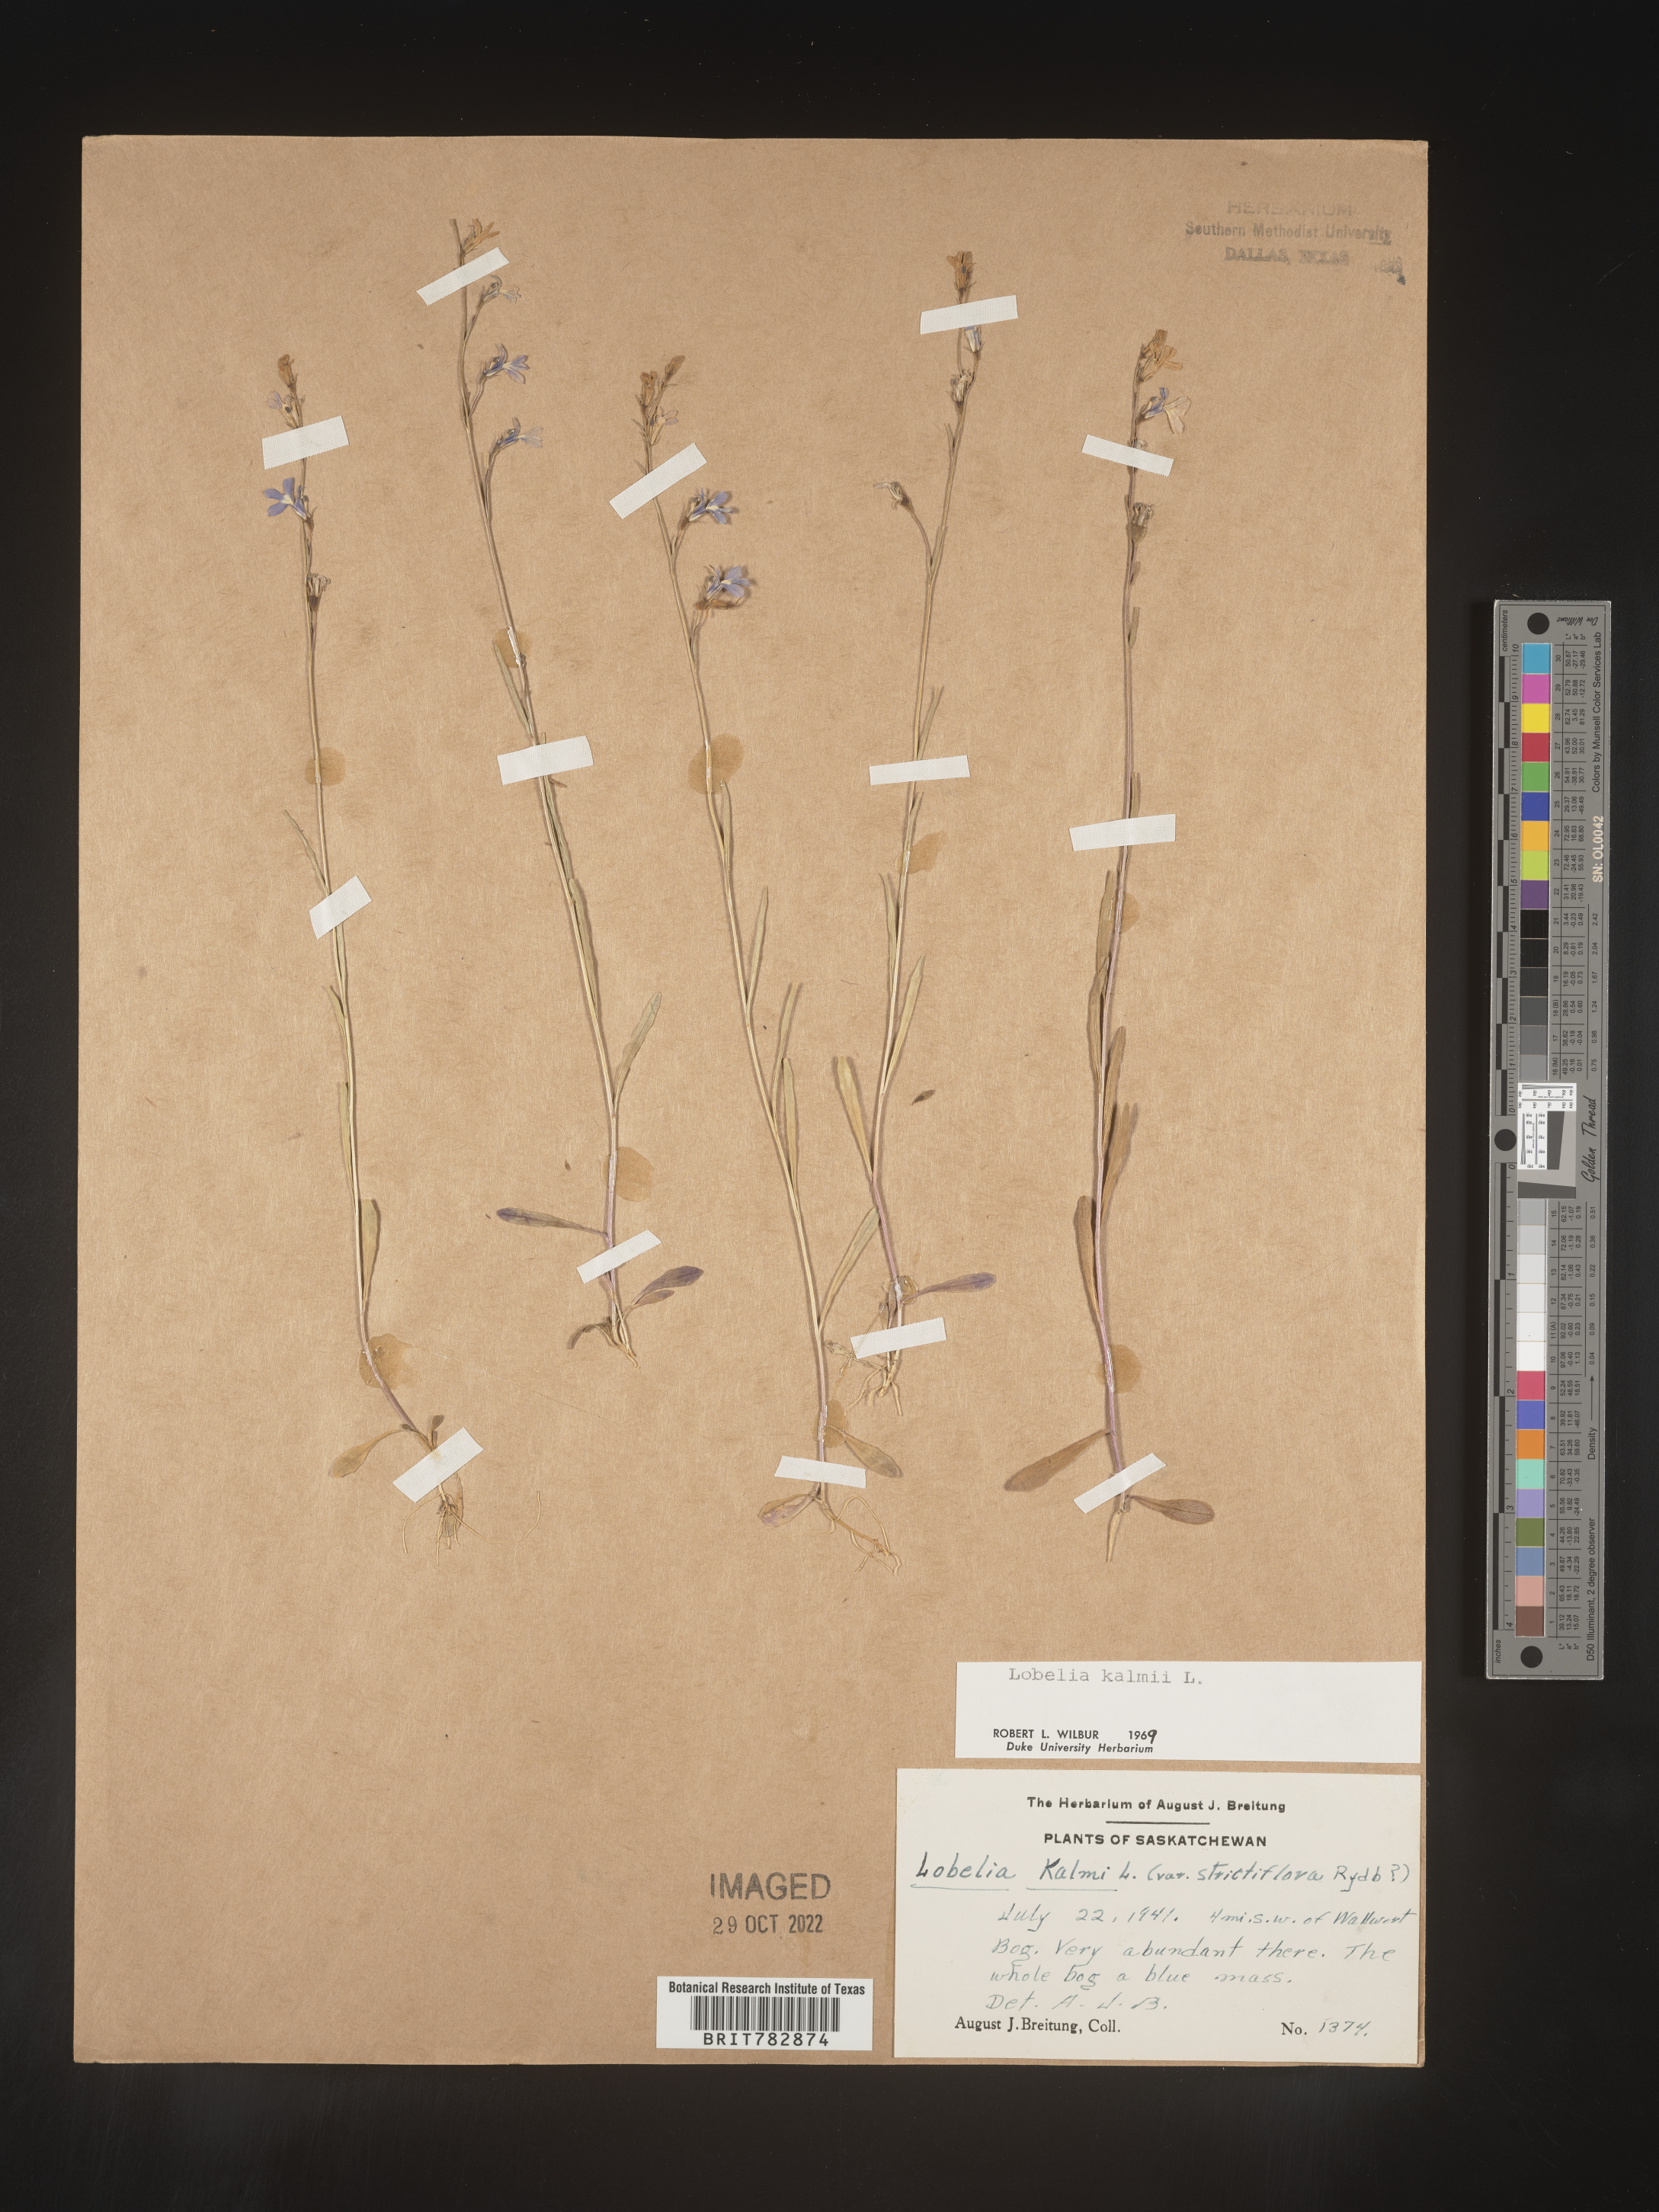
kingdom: Plantae
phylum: Tracheophyta
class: Magnoliopsida
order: Asterales
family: Campanulaceae
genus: Lobelia
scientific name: Lobelia
